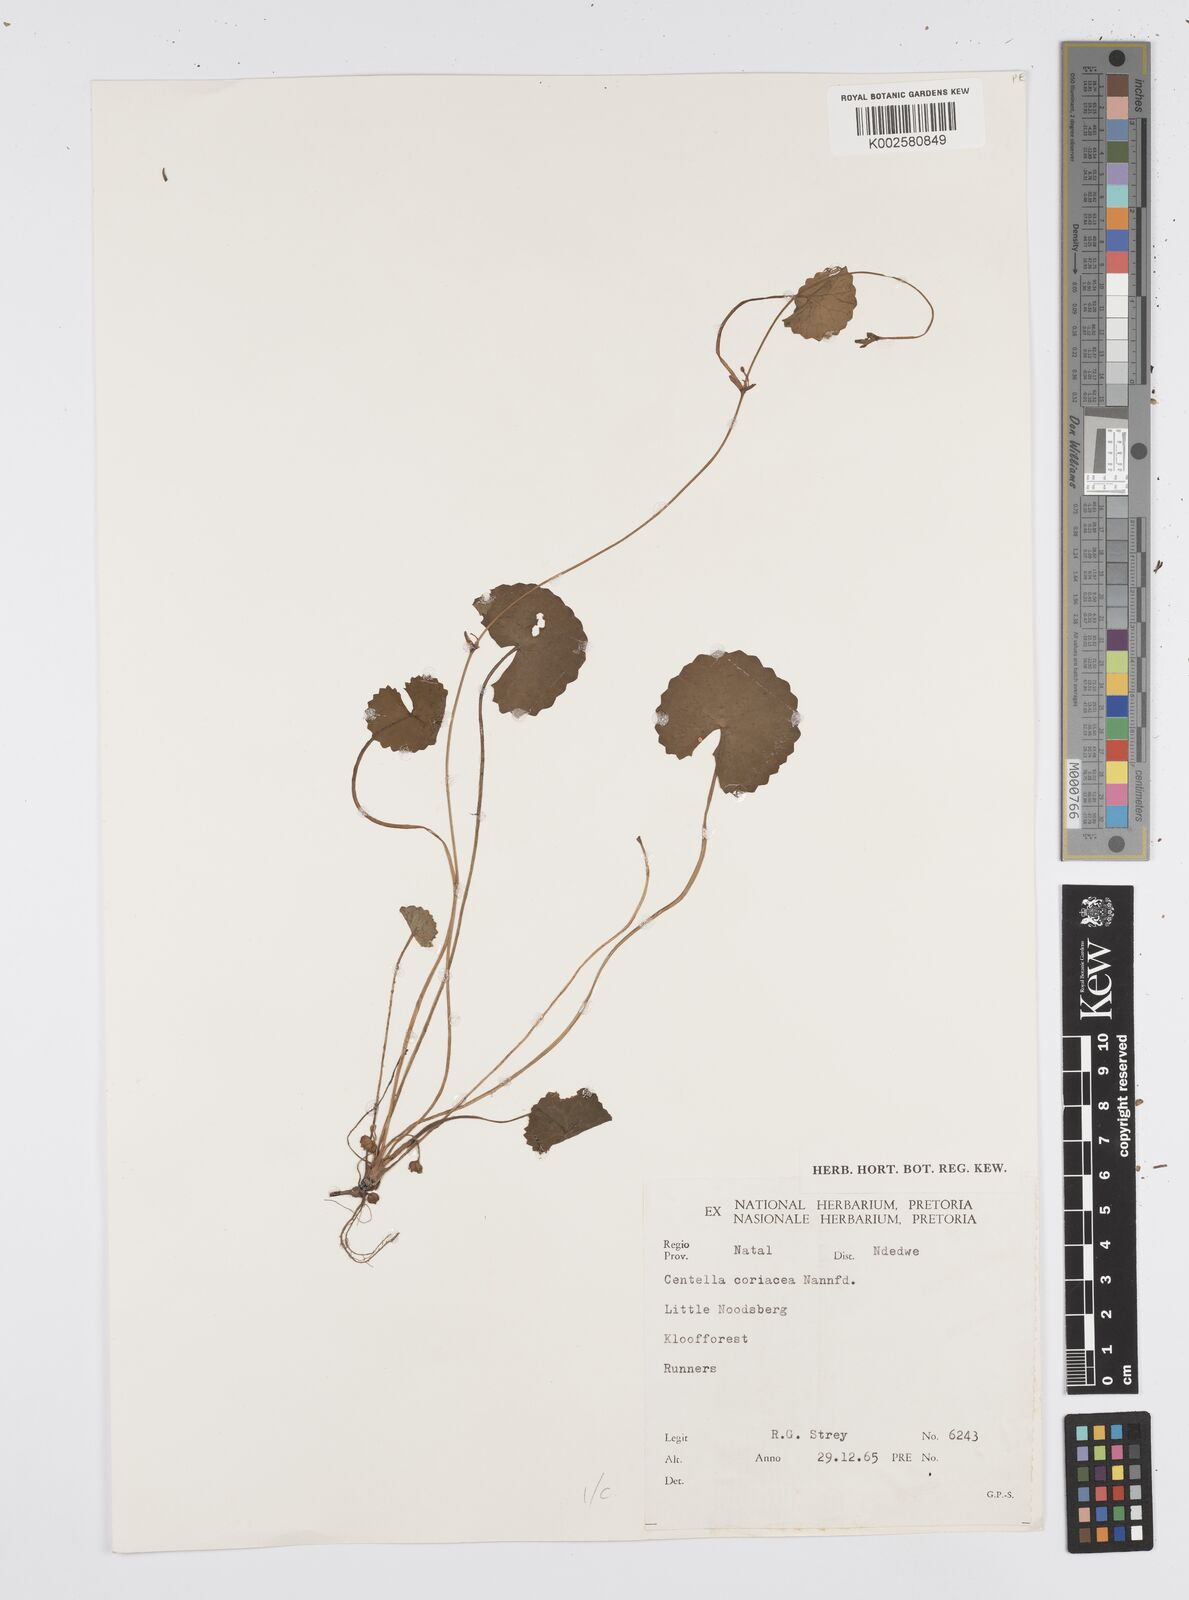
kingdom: Plantae
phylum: Tracheophyta
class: Magnoliopsida
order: Apiales
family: Apiaceae
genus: Centella
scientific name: Centella coriacea
